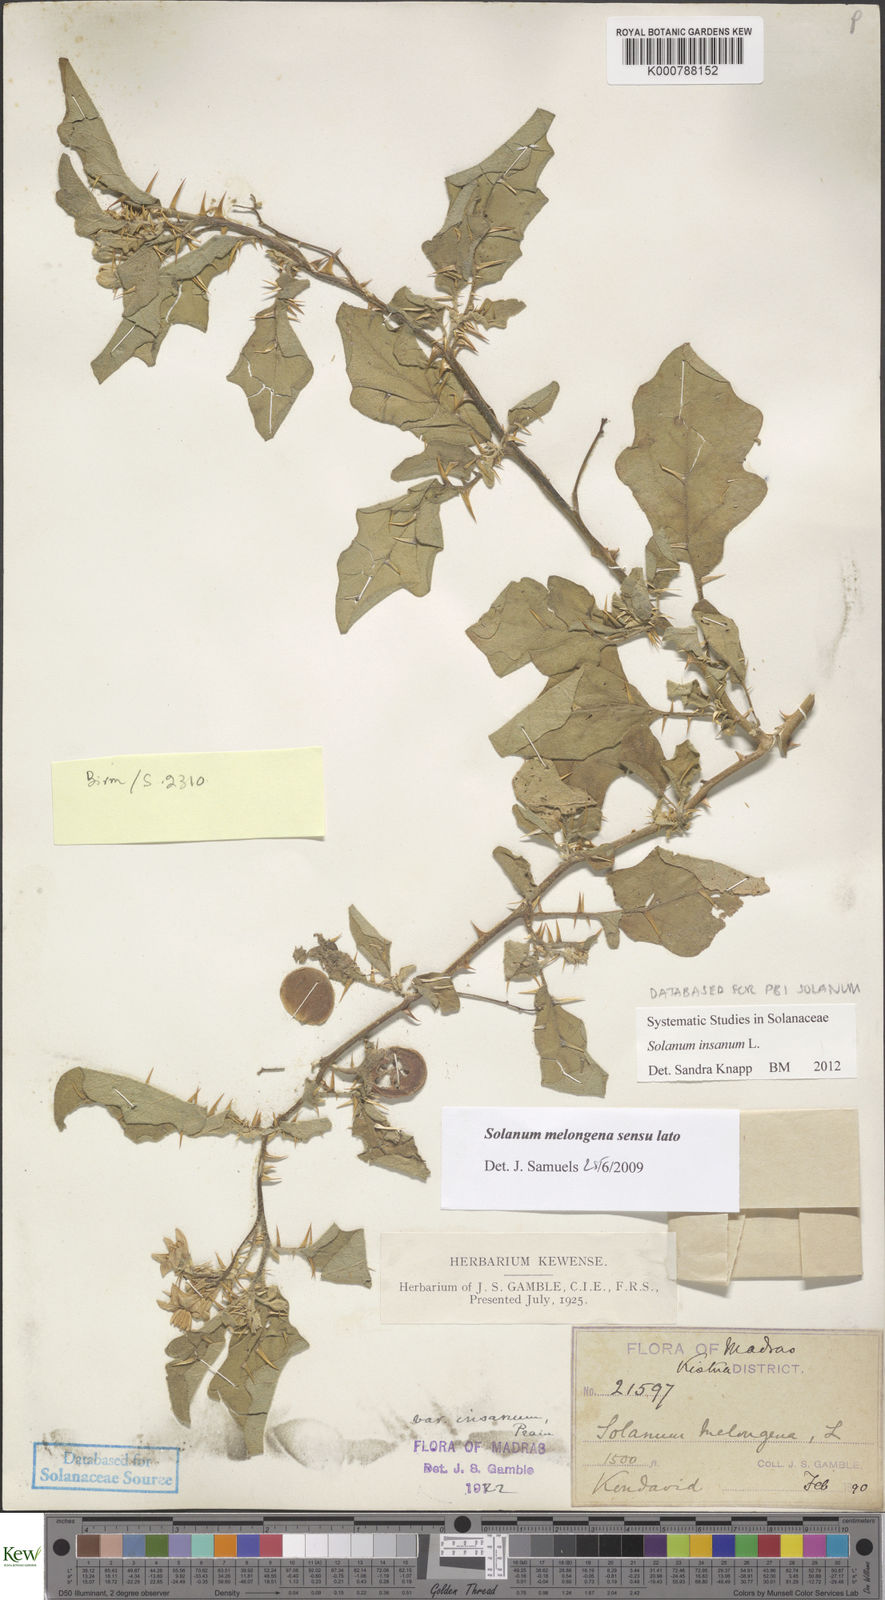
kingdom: Plantae
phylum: Tracheophyta
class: Magnoliopsida
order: Solanales
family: Solanaceae
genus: Solanum
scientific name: Solanum insanum
